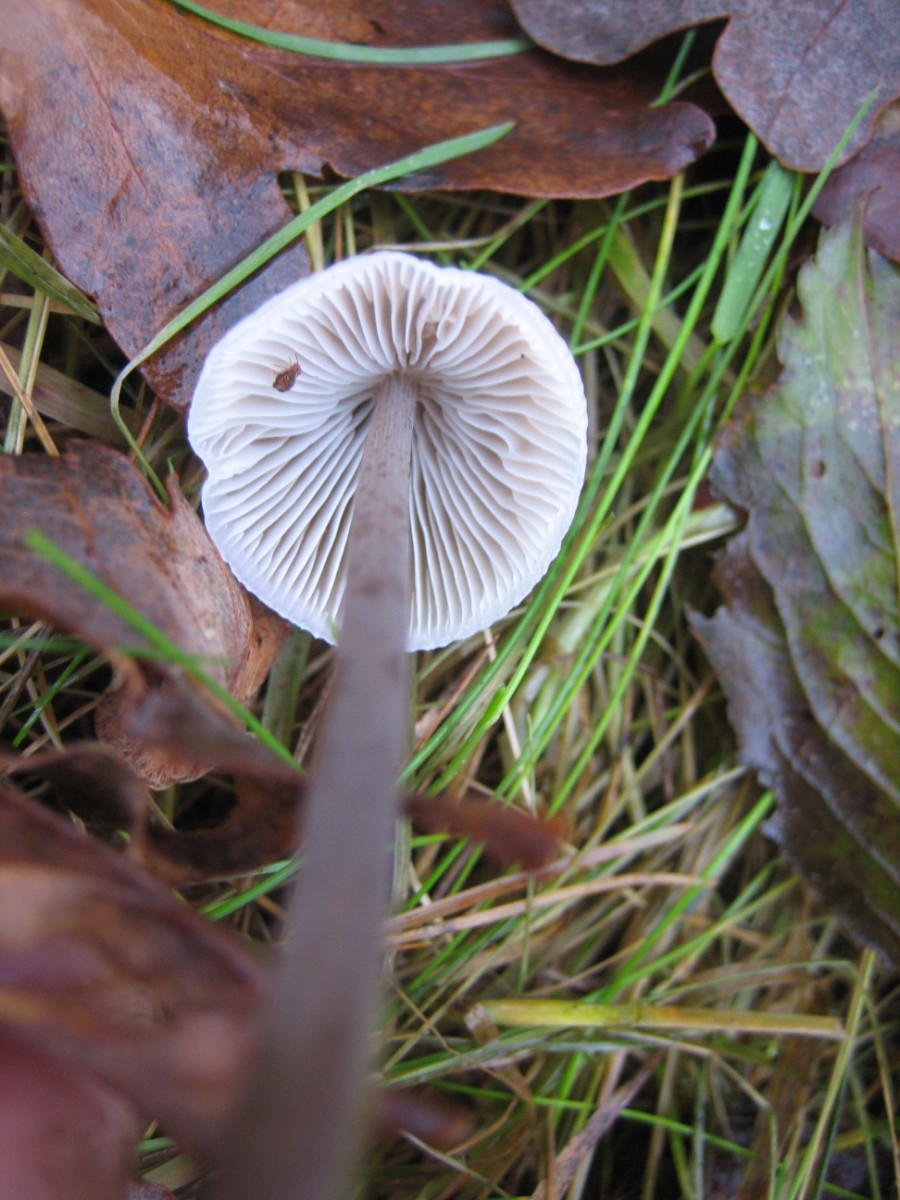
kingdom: Fungi
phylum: Basidiomycota
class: Agaricomycetes
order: Agaricales
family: Mycenaceae
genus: Mycena
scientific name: Mycena
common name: huesvamp
